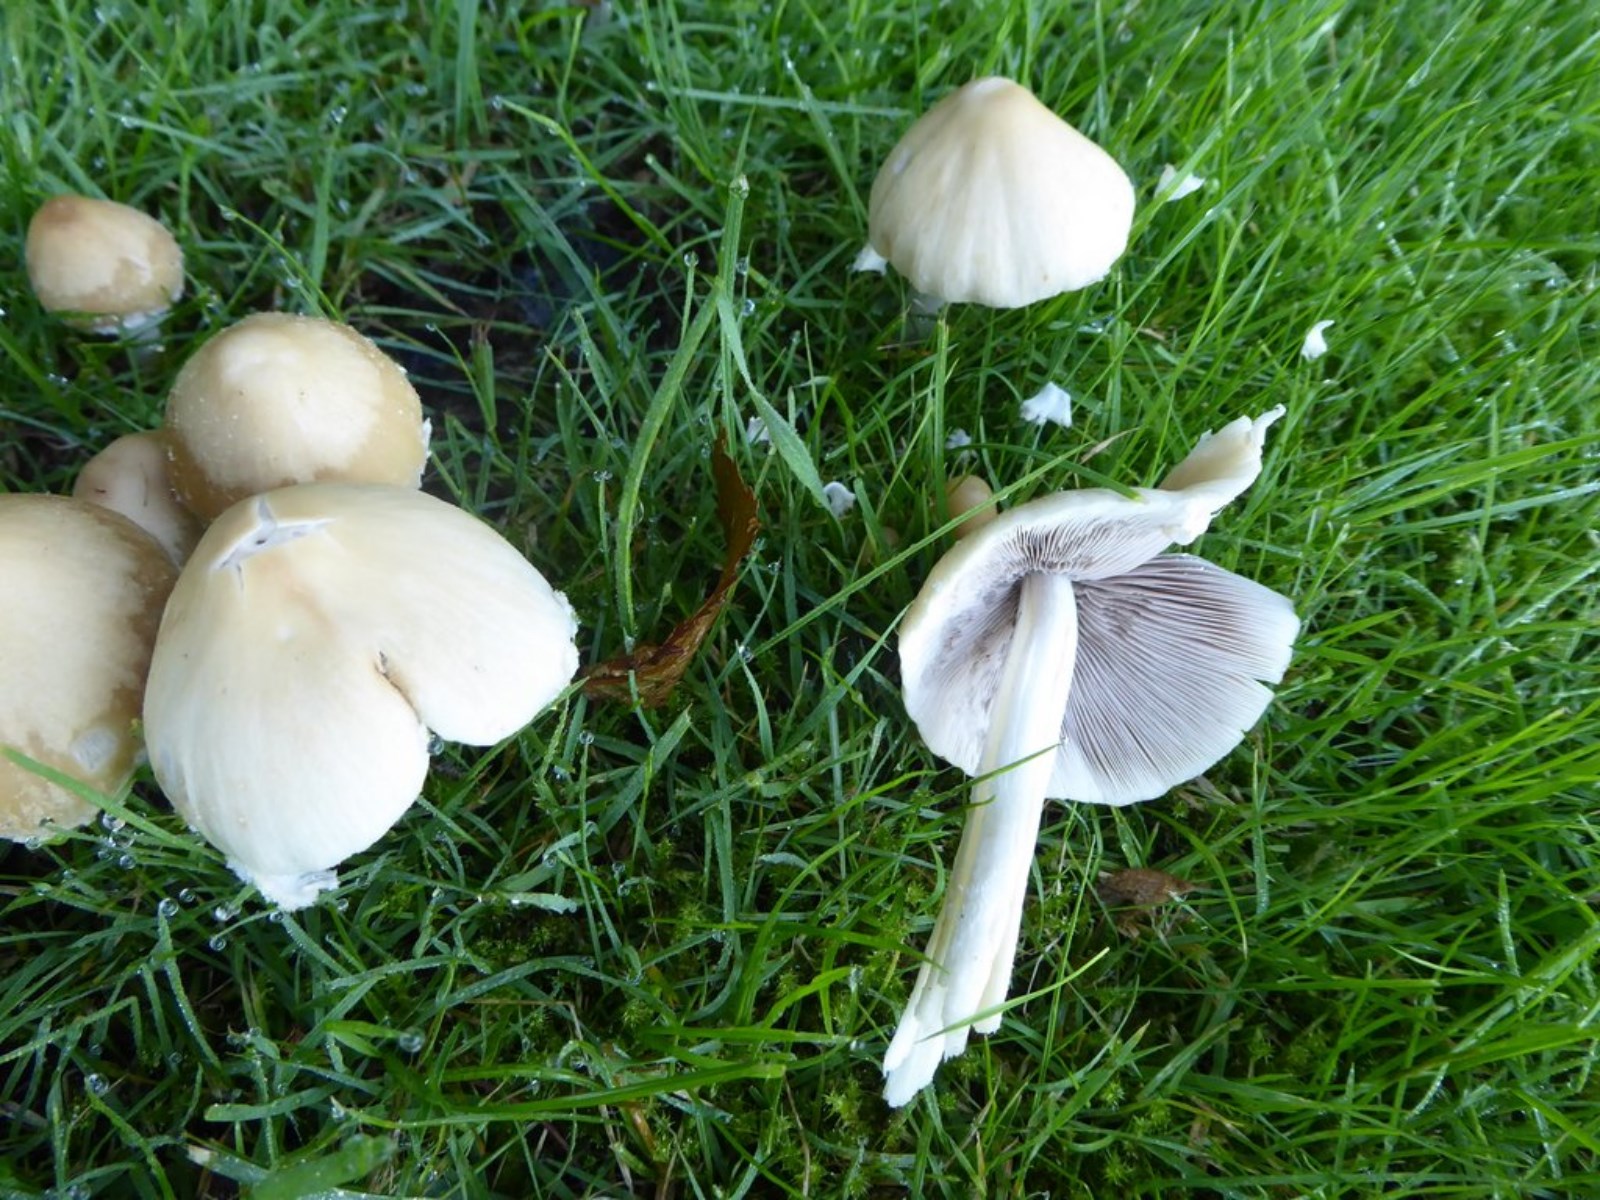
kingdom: Fungi
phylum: Basidiomycota
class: Agaricomycetes
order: Agaricales
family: Psathyrellaceae
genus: Candolleomyces
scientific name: Candolleomyces candolleanus
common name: Candolles mørkhat
